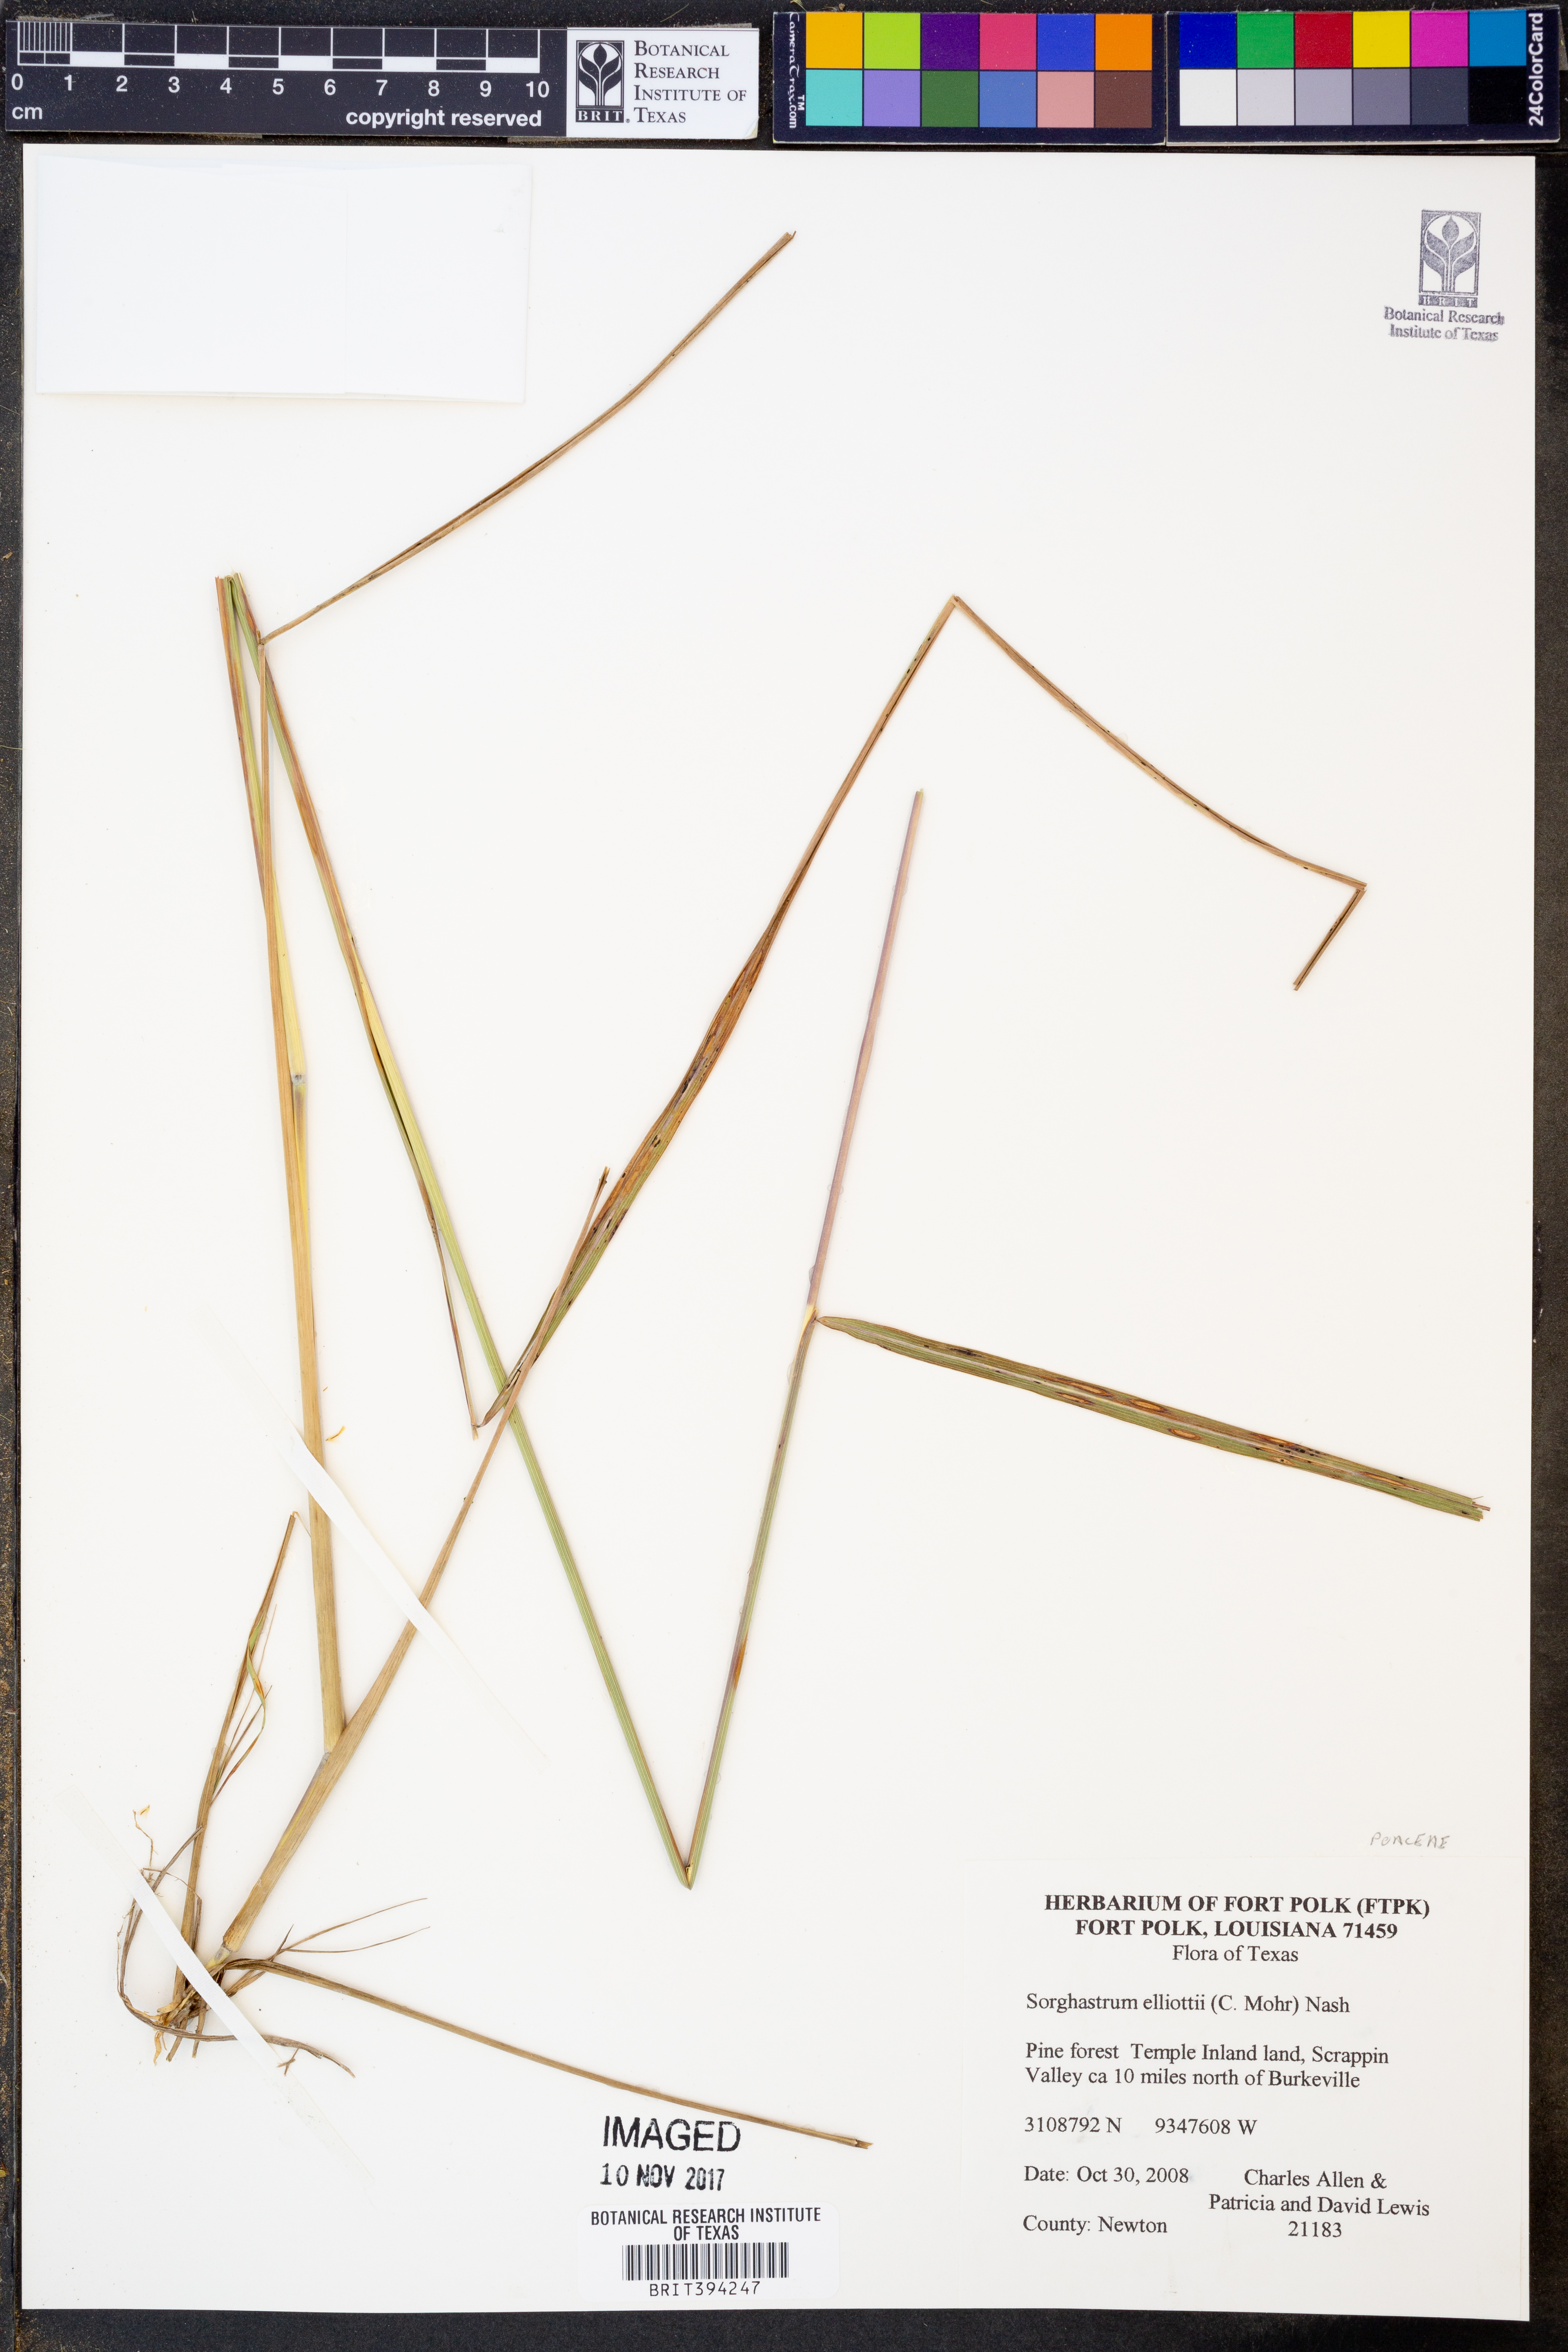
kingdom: Plantae
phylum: Tracheophyta
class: Liliopsida
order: Poales
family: Poaceae
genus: Sorghastrum
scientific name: Sorghastrum elliottii
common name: Slender indian grass
